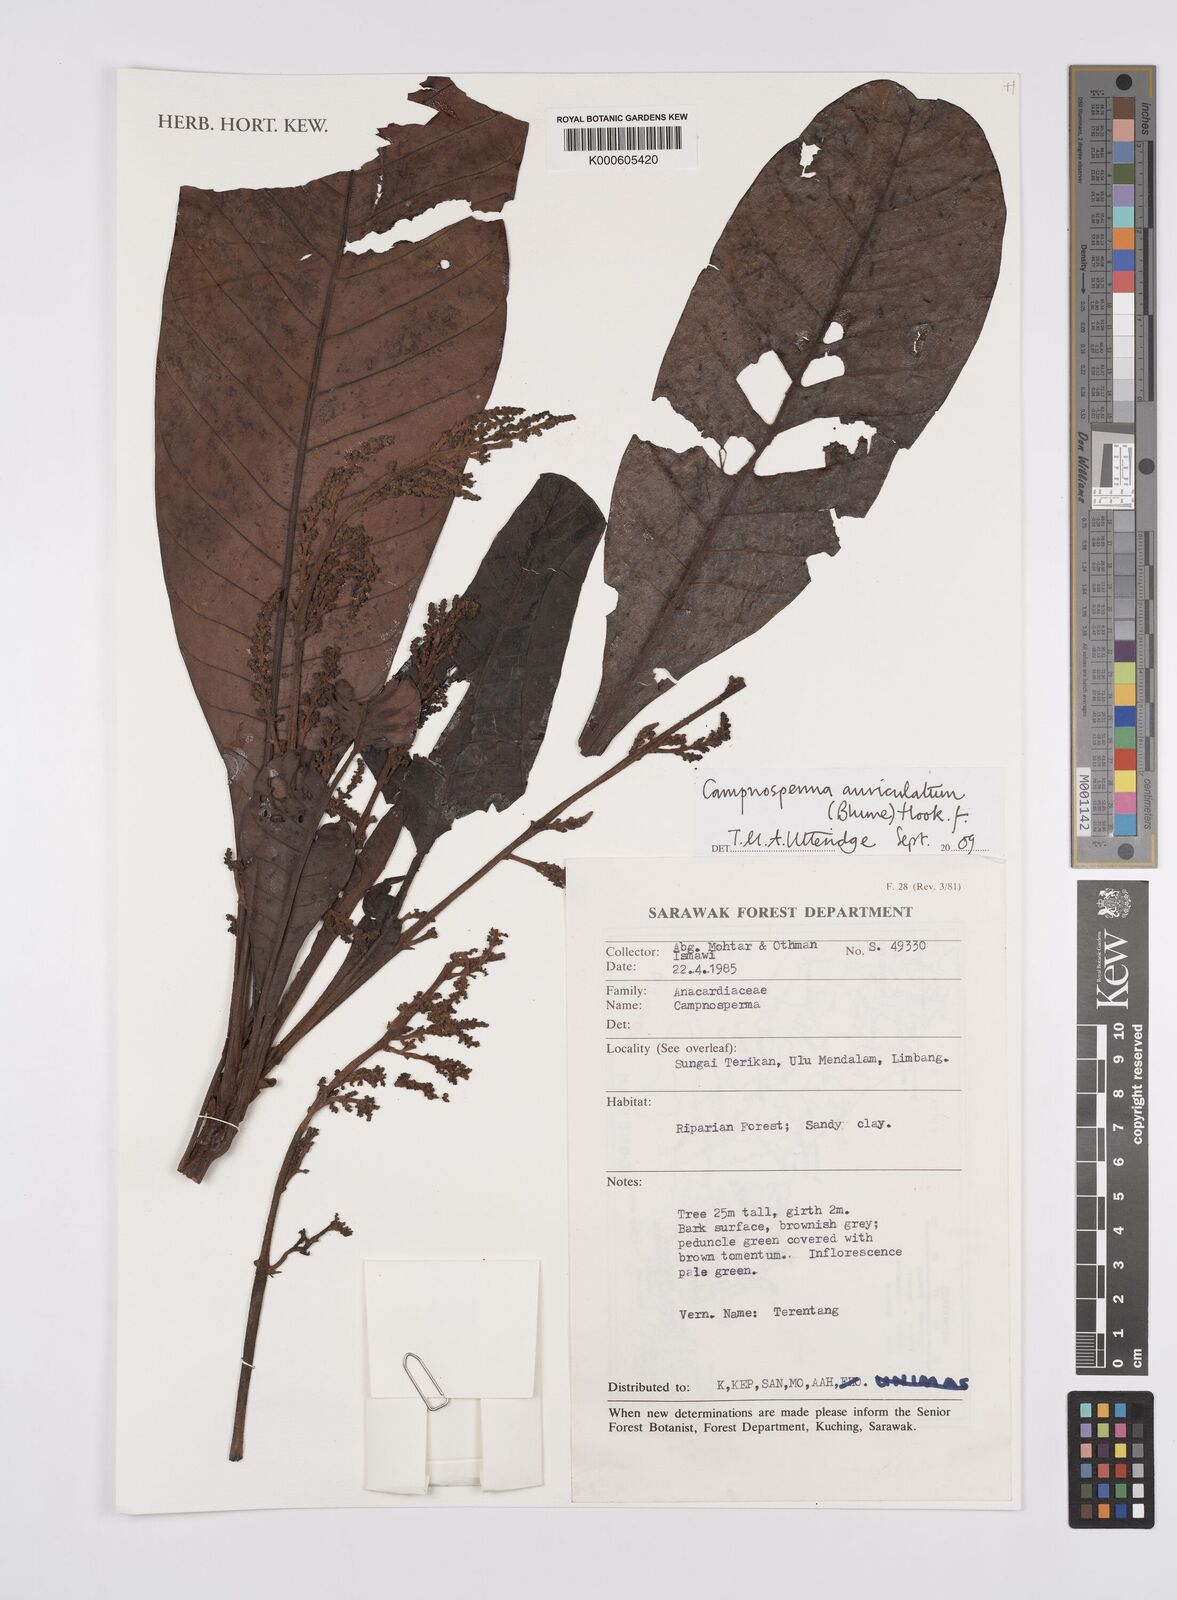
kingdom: Plantae
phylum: Tracheophyta
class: Magnoliopsida
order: Sapindales
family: Anacardiaceae
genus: Campnosperma
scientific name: Campnosperma auriculatum
